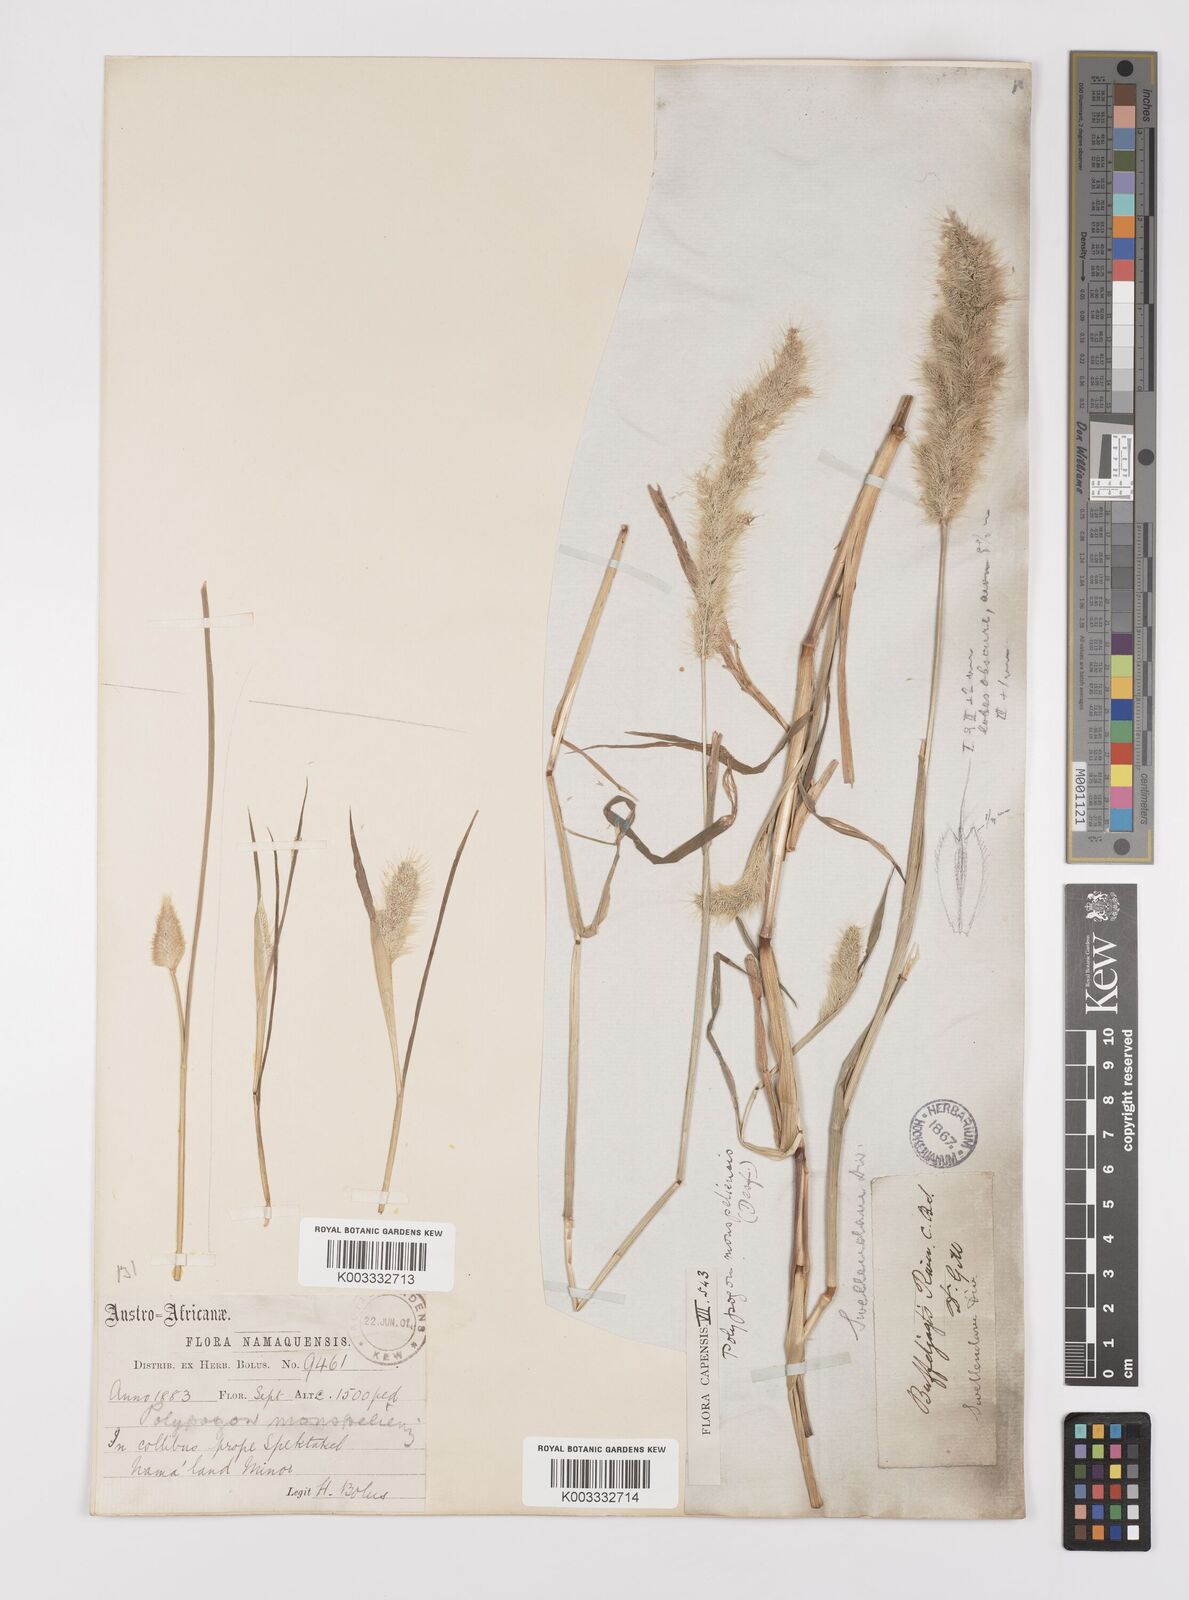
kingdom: Plantae
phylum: Tracheophyta
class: Liliopsida
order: Poales
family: Poaceae
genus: Polypogon
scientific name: Polypogon monspeliensis
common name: Annual rabbitsfoot grass
